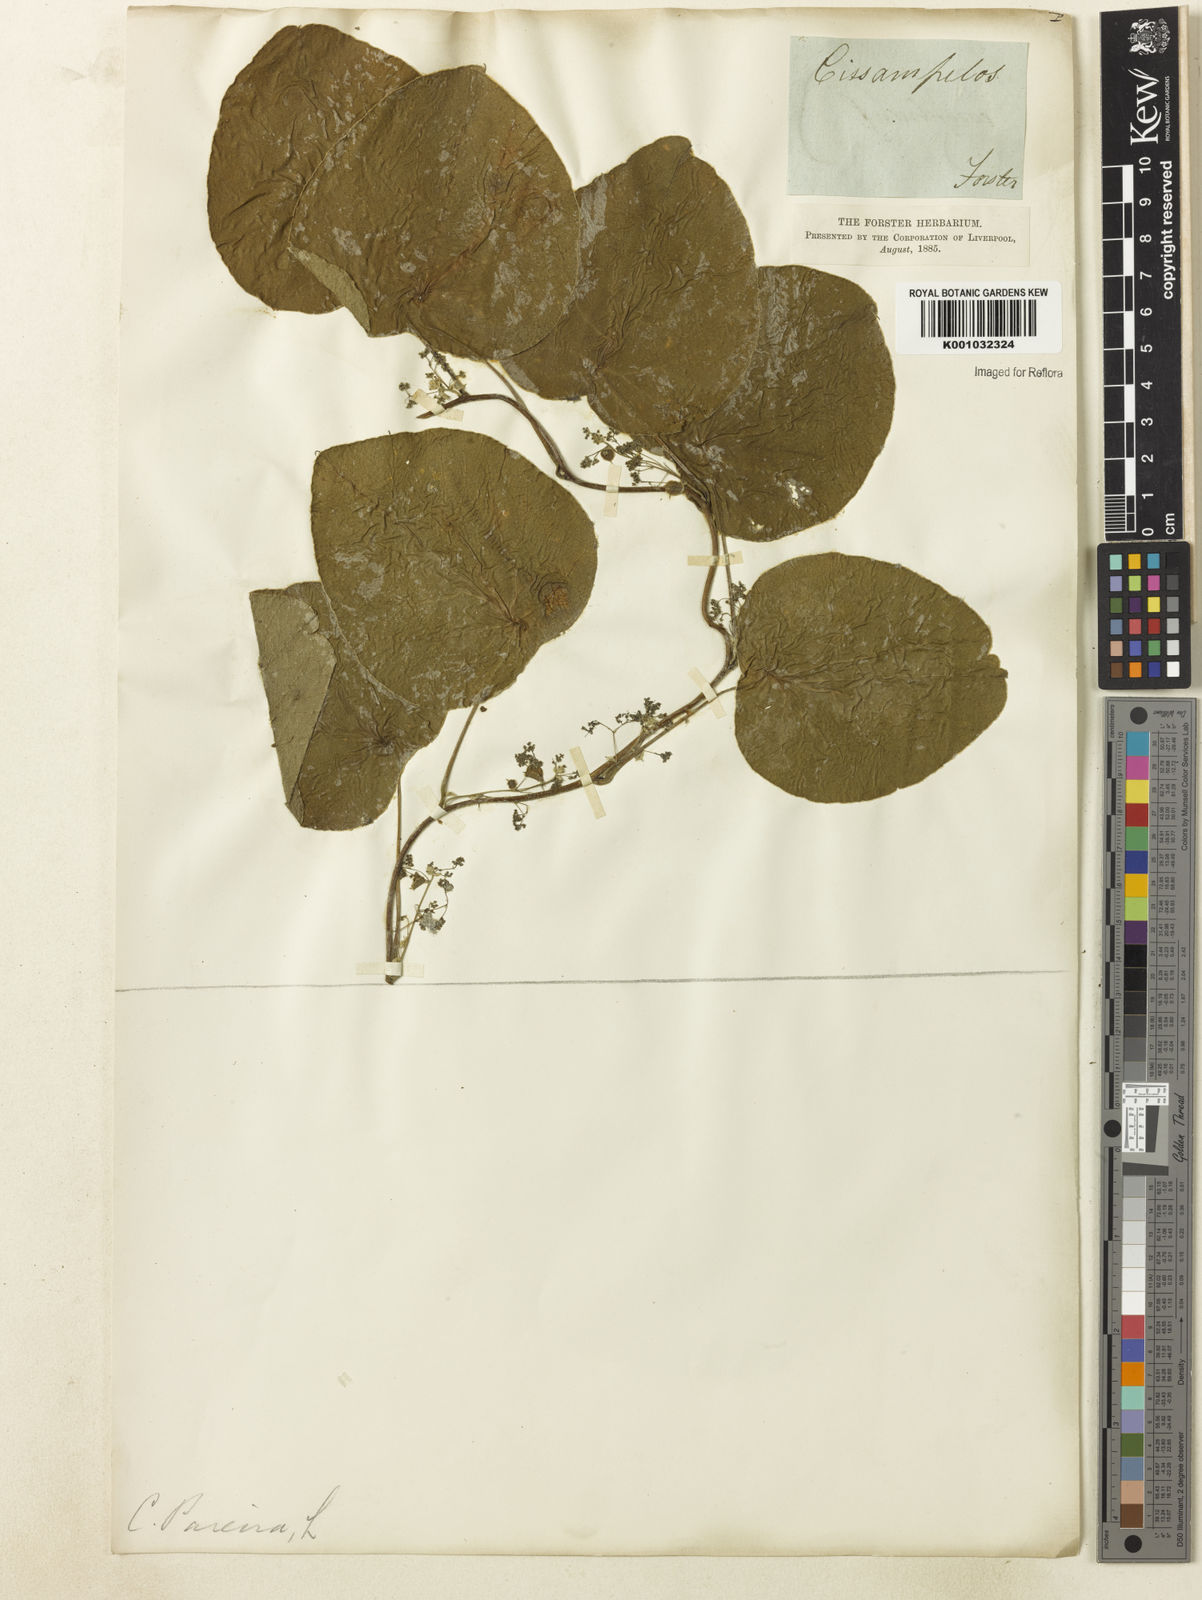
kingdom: Plantae
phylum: Tracheophyta
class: Magnoliopsida
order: Ranunculales
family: Menispermaceae
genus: Cissampelos
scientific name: Cissampelos
